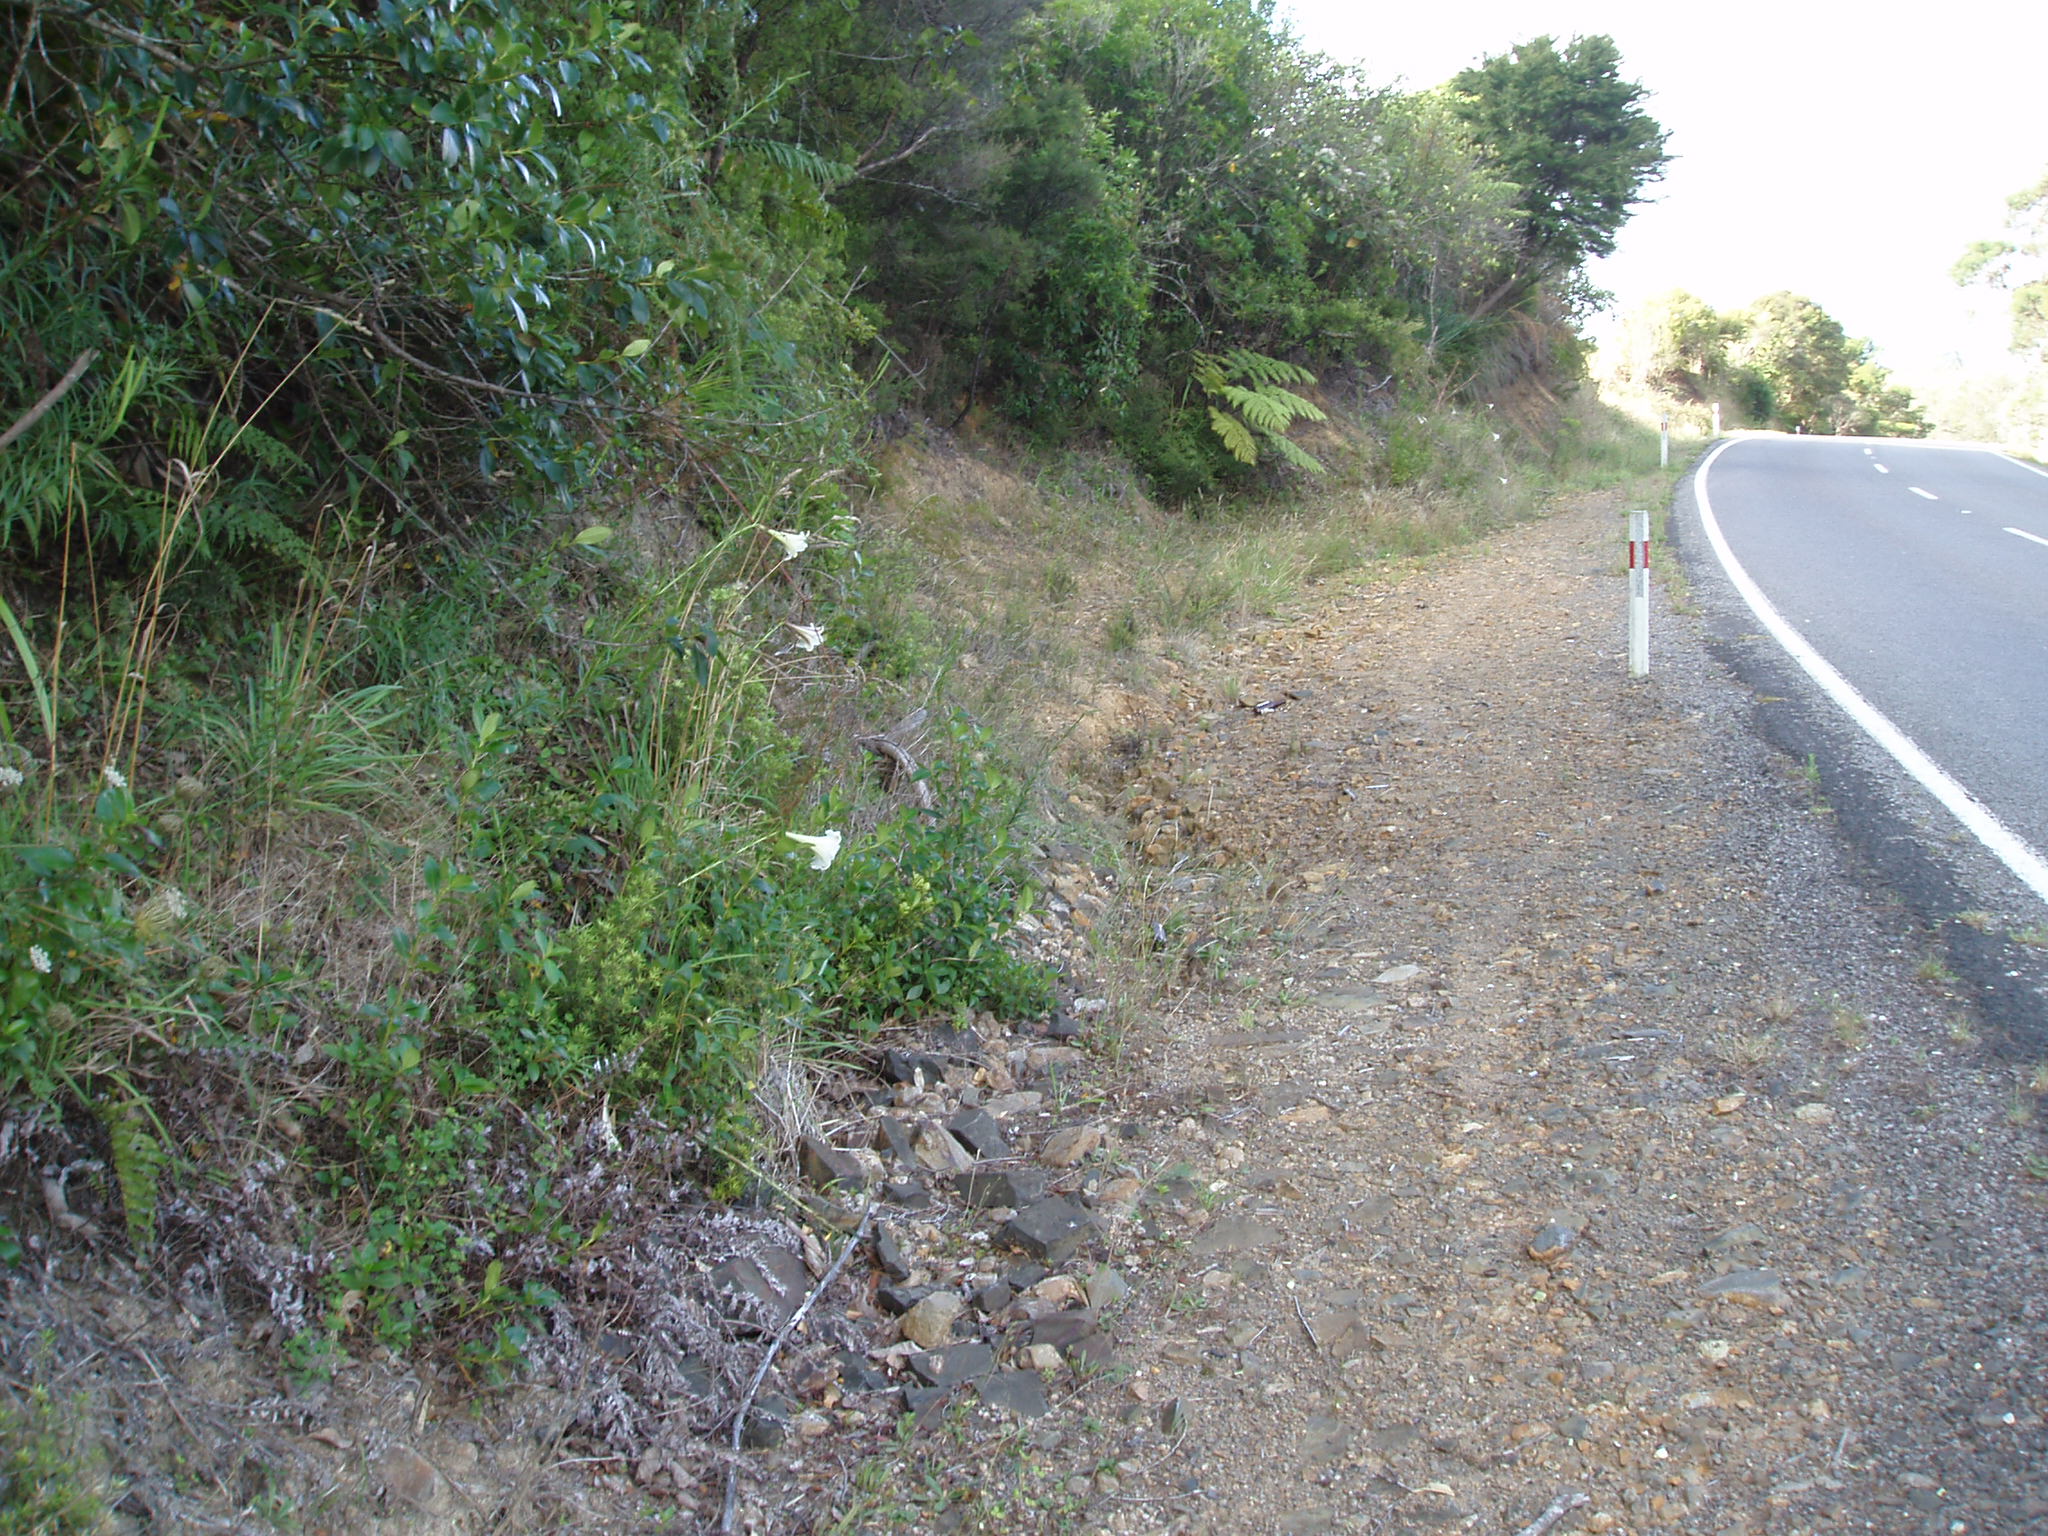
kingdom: Plantae
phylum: Tracheophyta
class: Liliopsida
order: Liliales
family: Liliaceae
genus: Lilium
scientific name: Lilium formosanum
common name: Formosa lily
